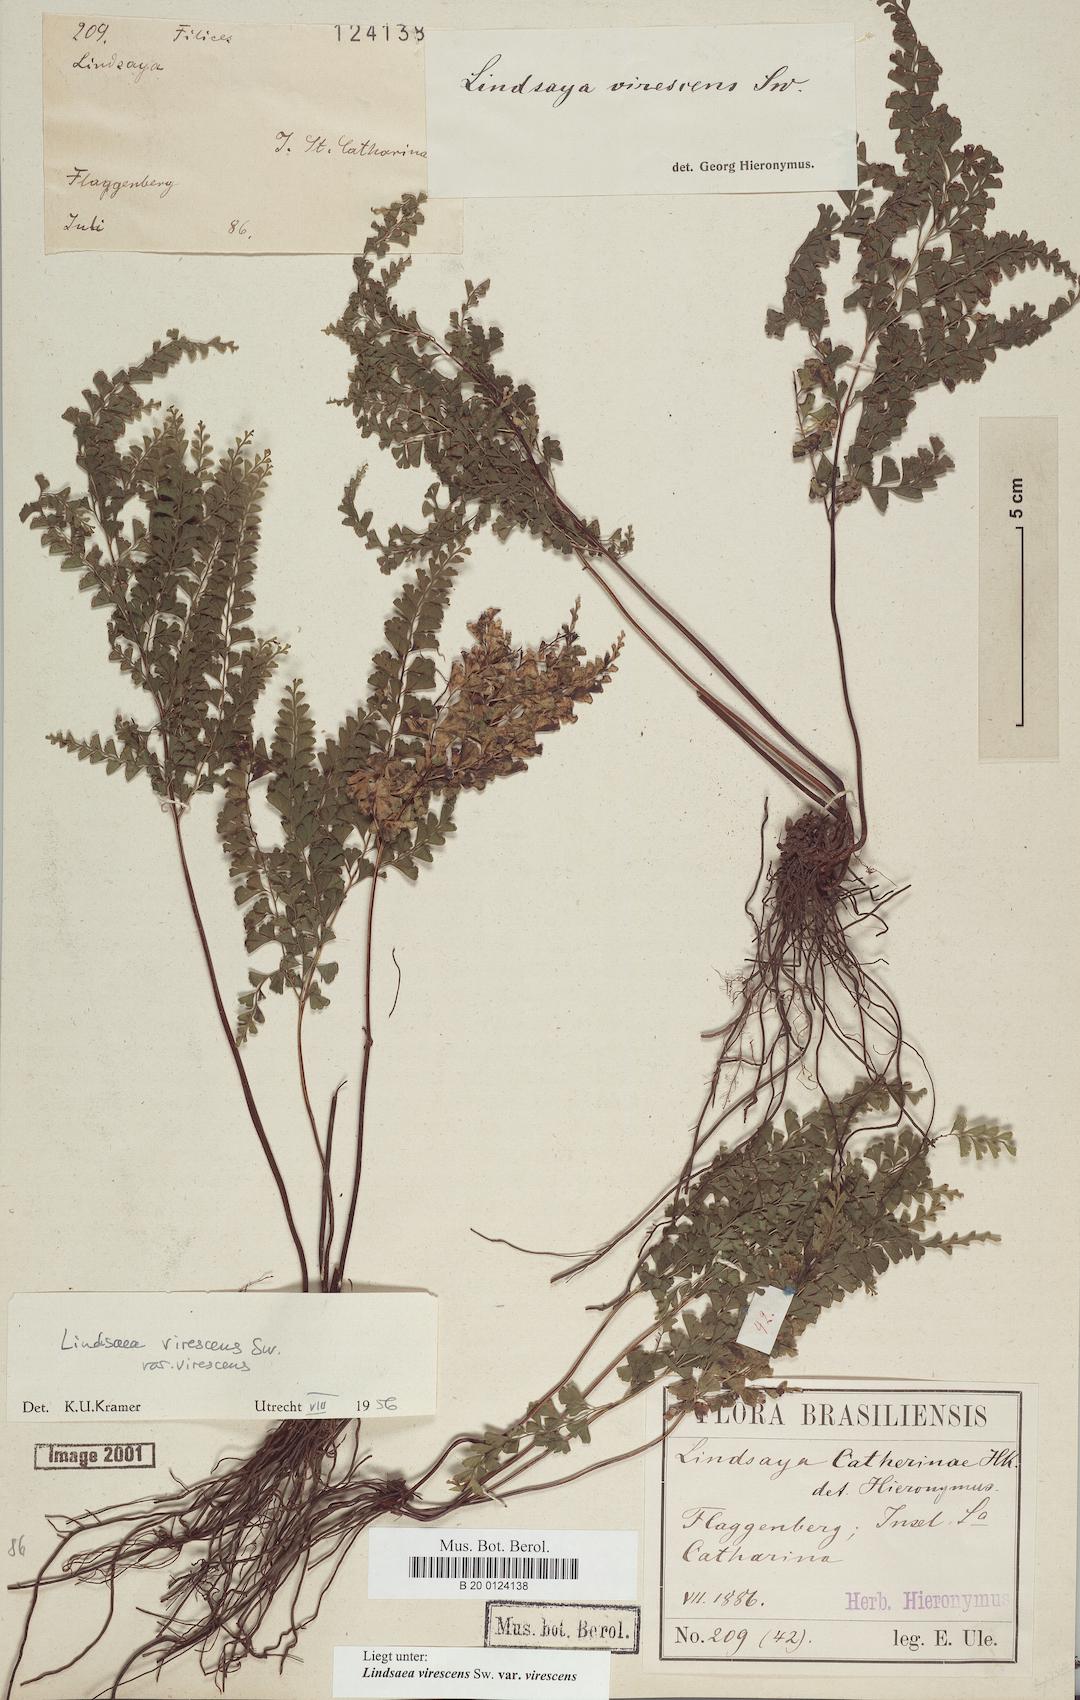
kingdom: Plantae
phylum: Tracheophyta
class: Polypodiopsida
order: Polypodiales
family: Lindsaeaceae
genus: Lindsaea
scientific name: Lindsaea virescens
